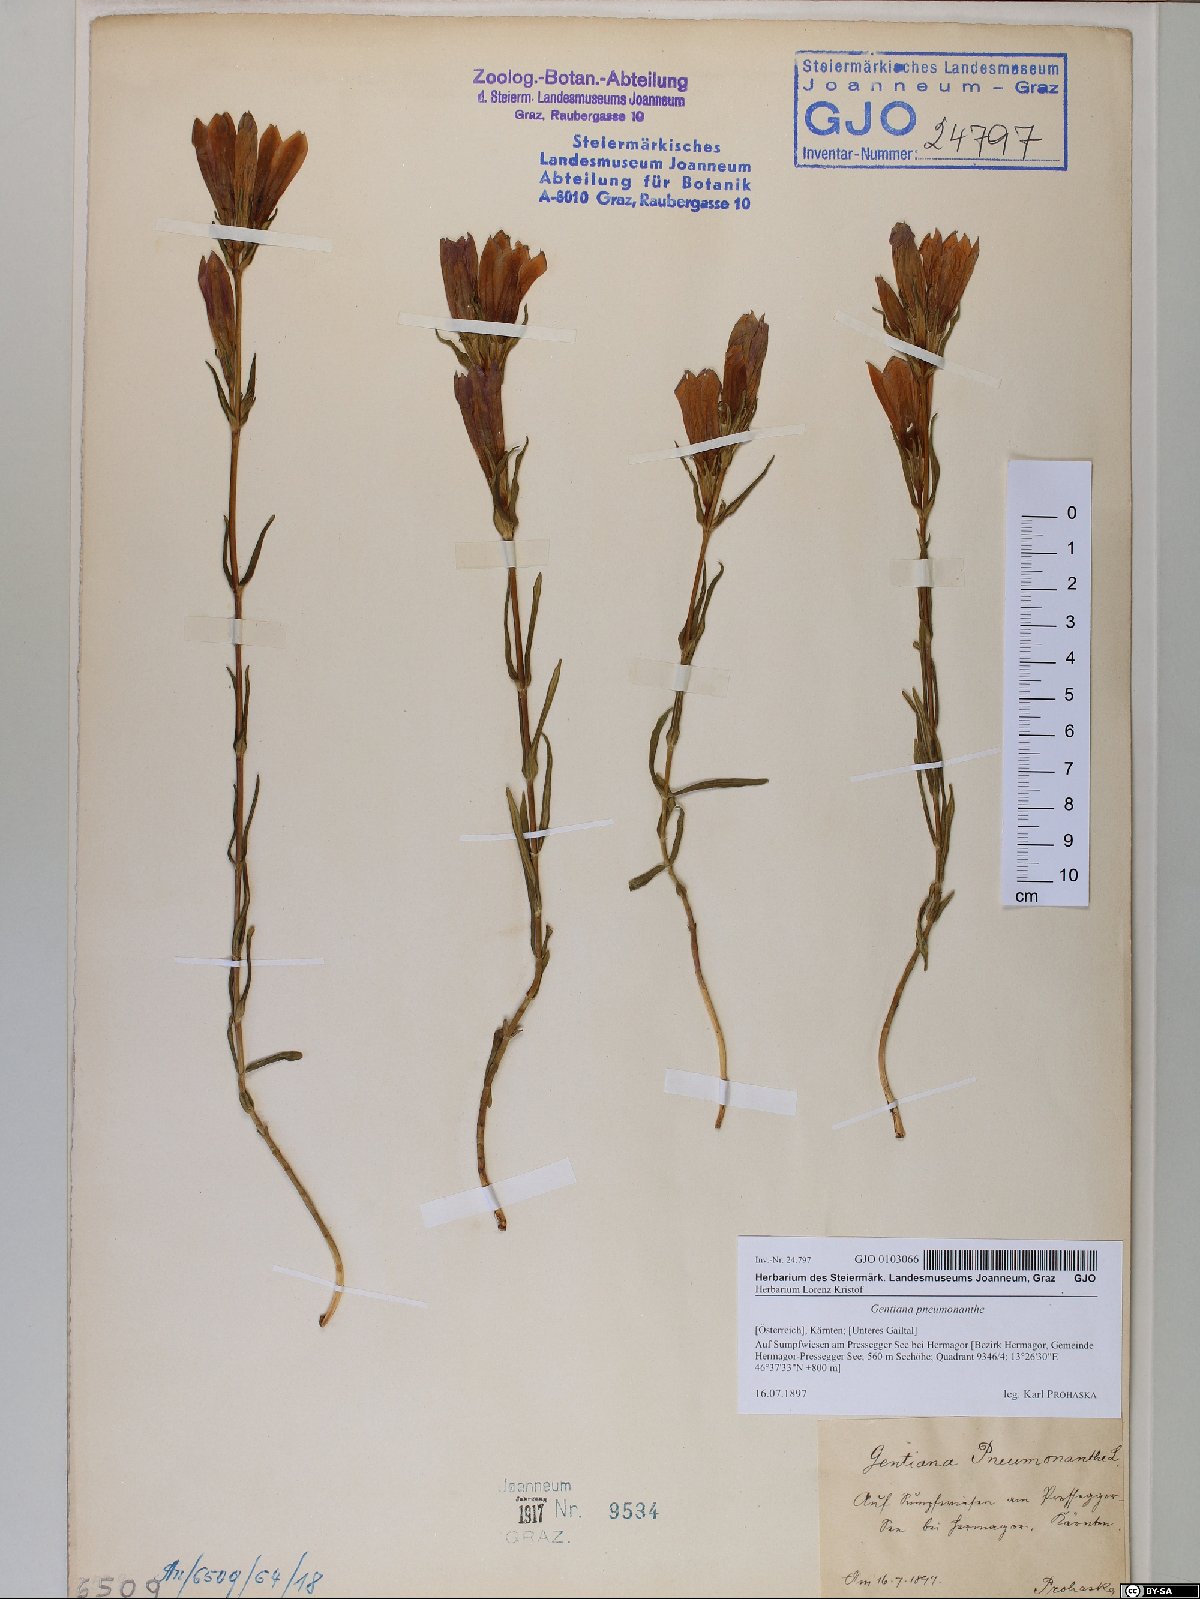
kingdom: Plantae
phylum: Tracheophyta
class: Magnoliopsida
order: Gentianales
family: Gentianaceae
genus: Gentiana
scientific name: Gentiana pneumonanthe
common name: Marsh gentian
